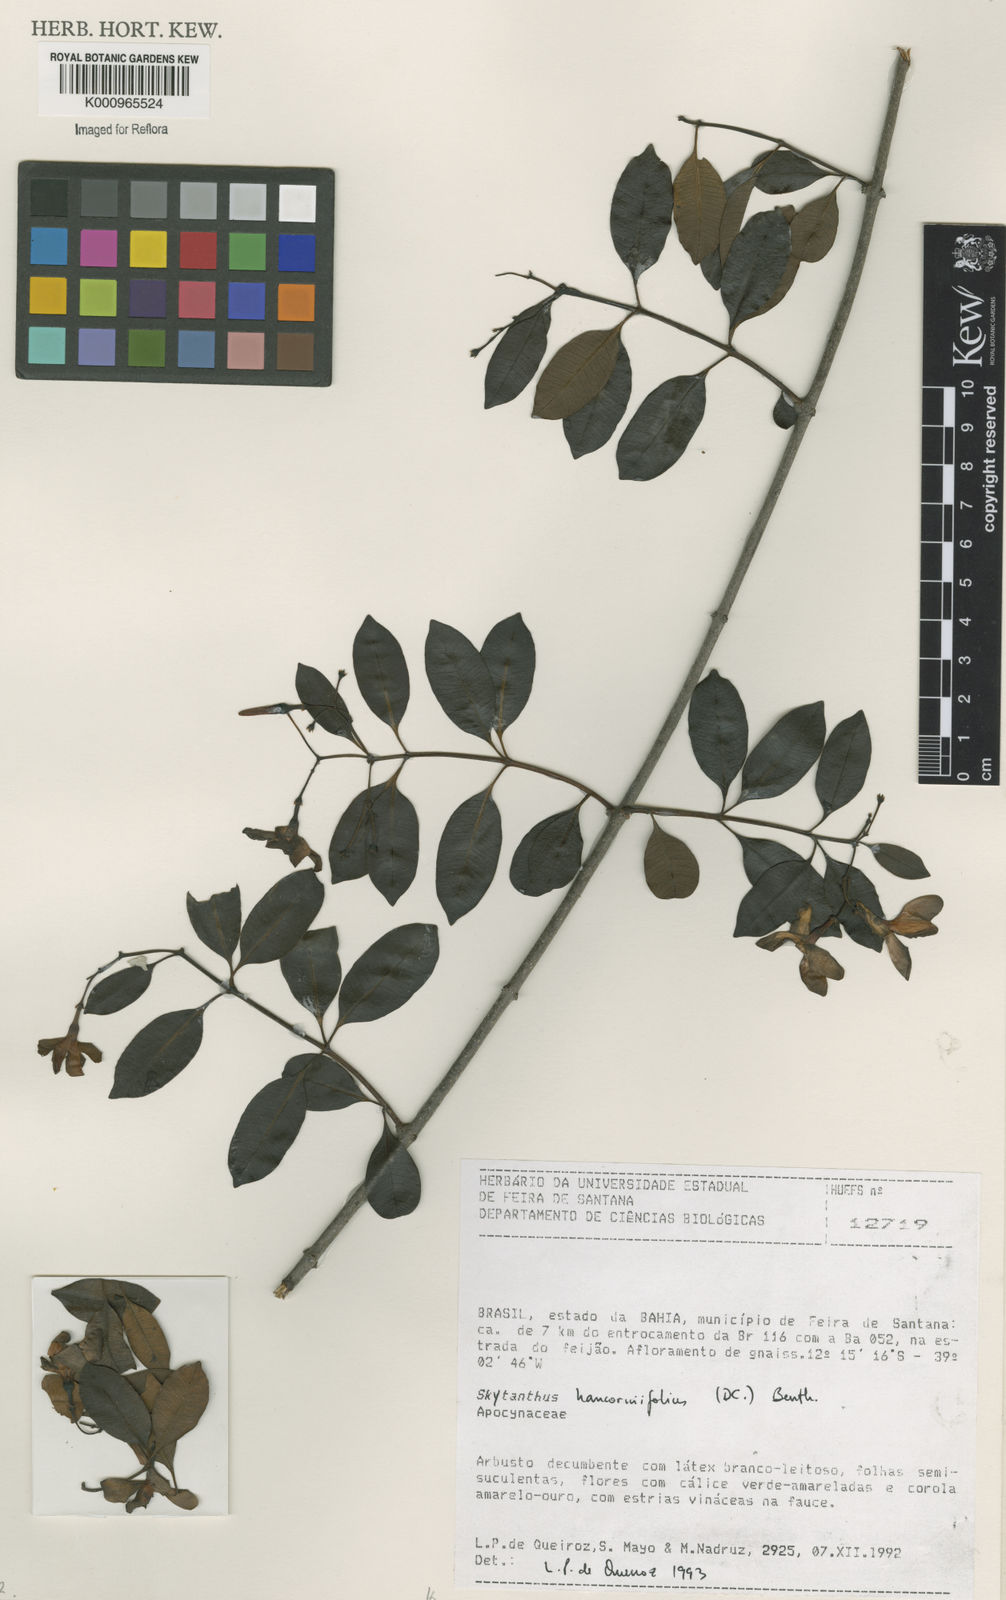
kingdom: Plantae
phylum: Tracheophyta
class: Magnoliopsida
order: Gentianales
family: Apocynaceae
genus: Skytanthus
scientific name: Skytanthus hancorniifolius
